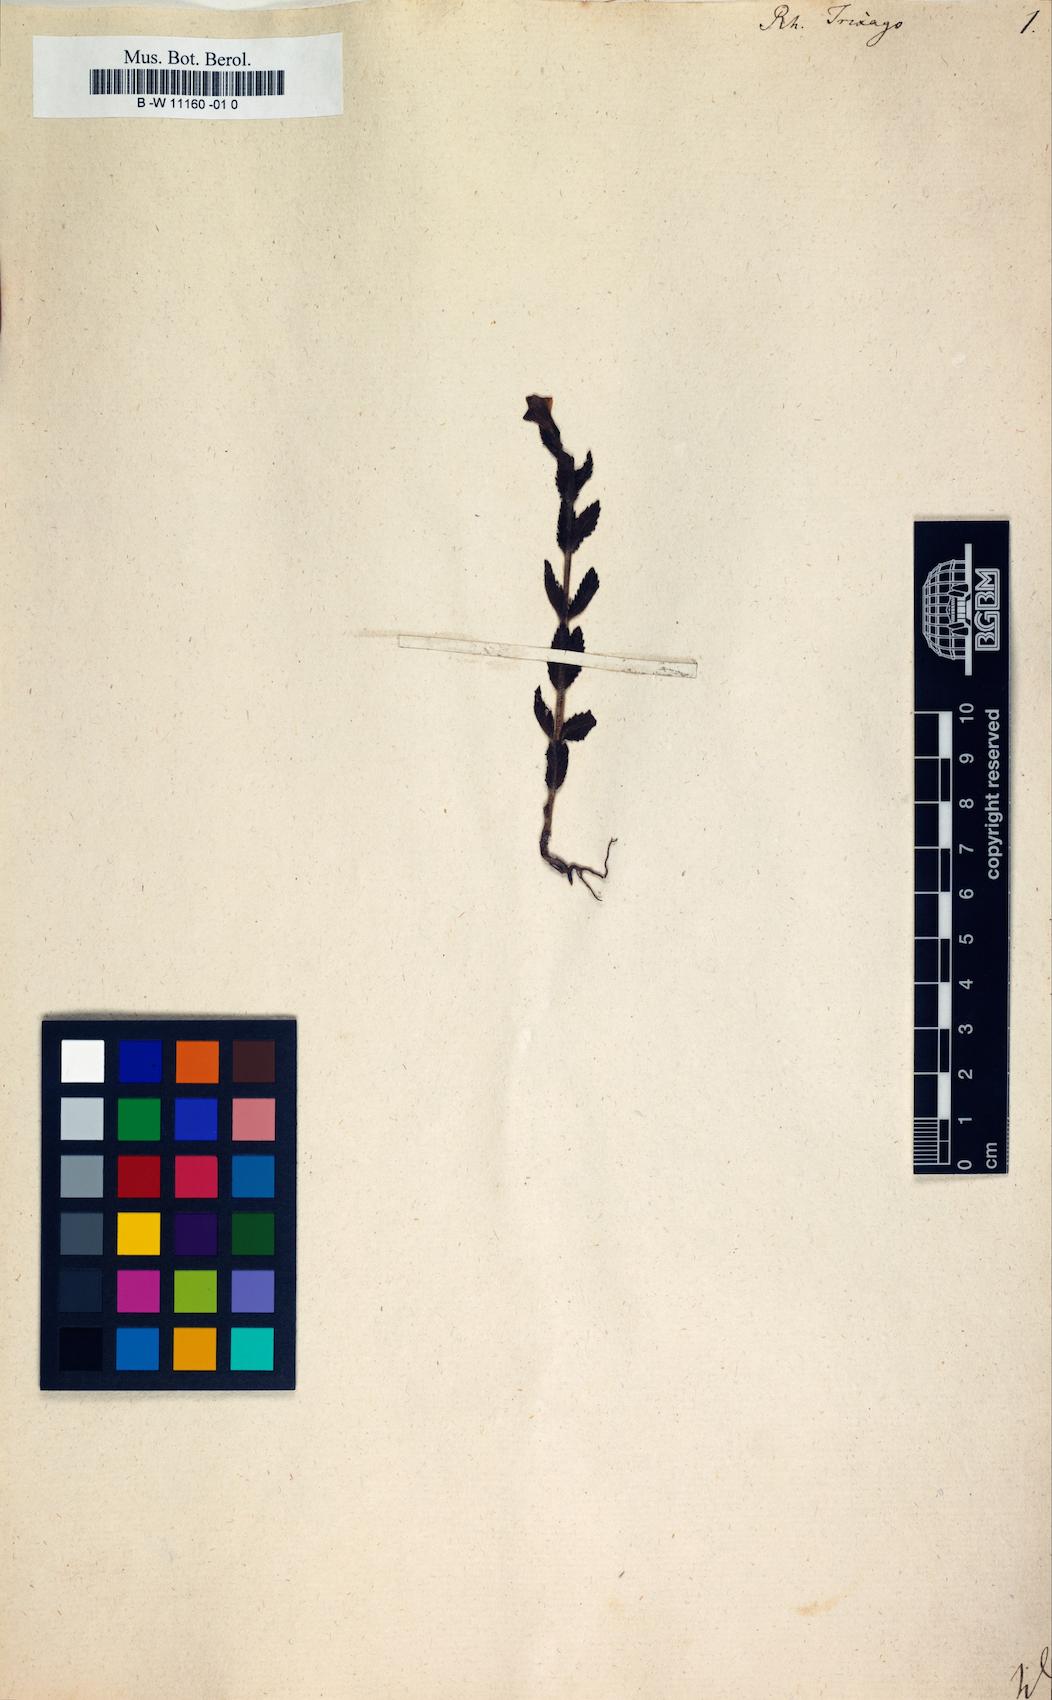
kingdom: Plantae
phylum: Tracheophyta
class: Magnoliopsida
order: Lamiales
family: Orobanchaceae
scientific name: Orobanchaceae
